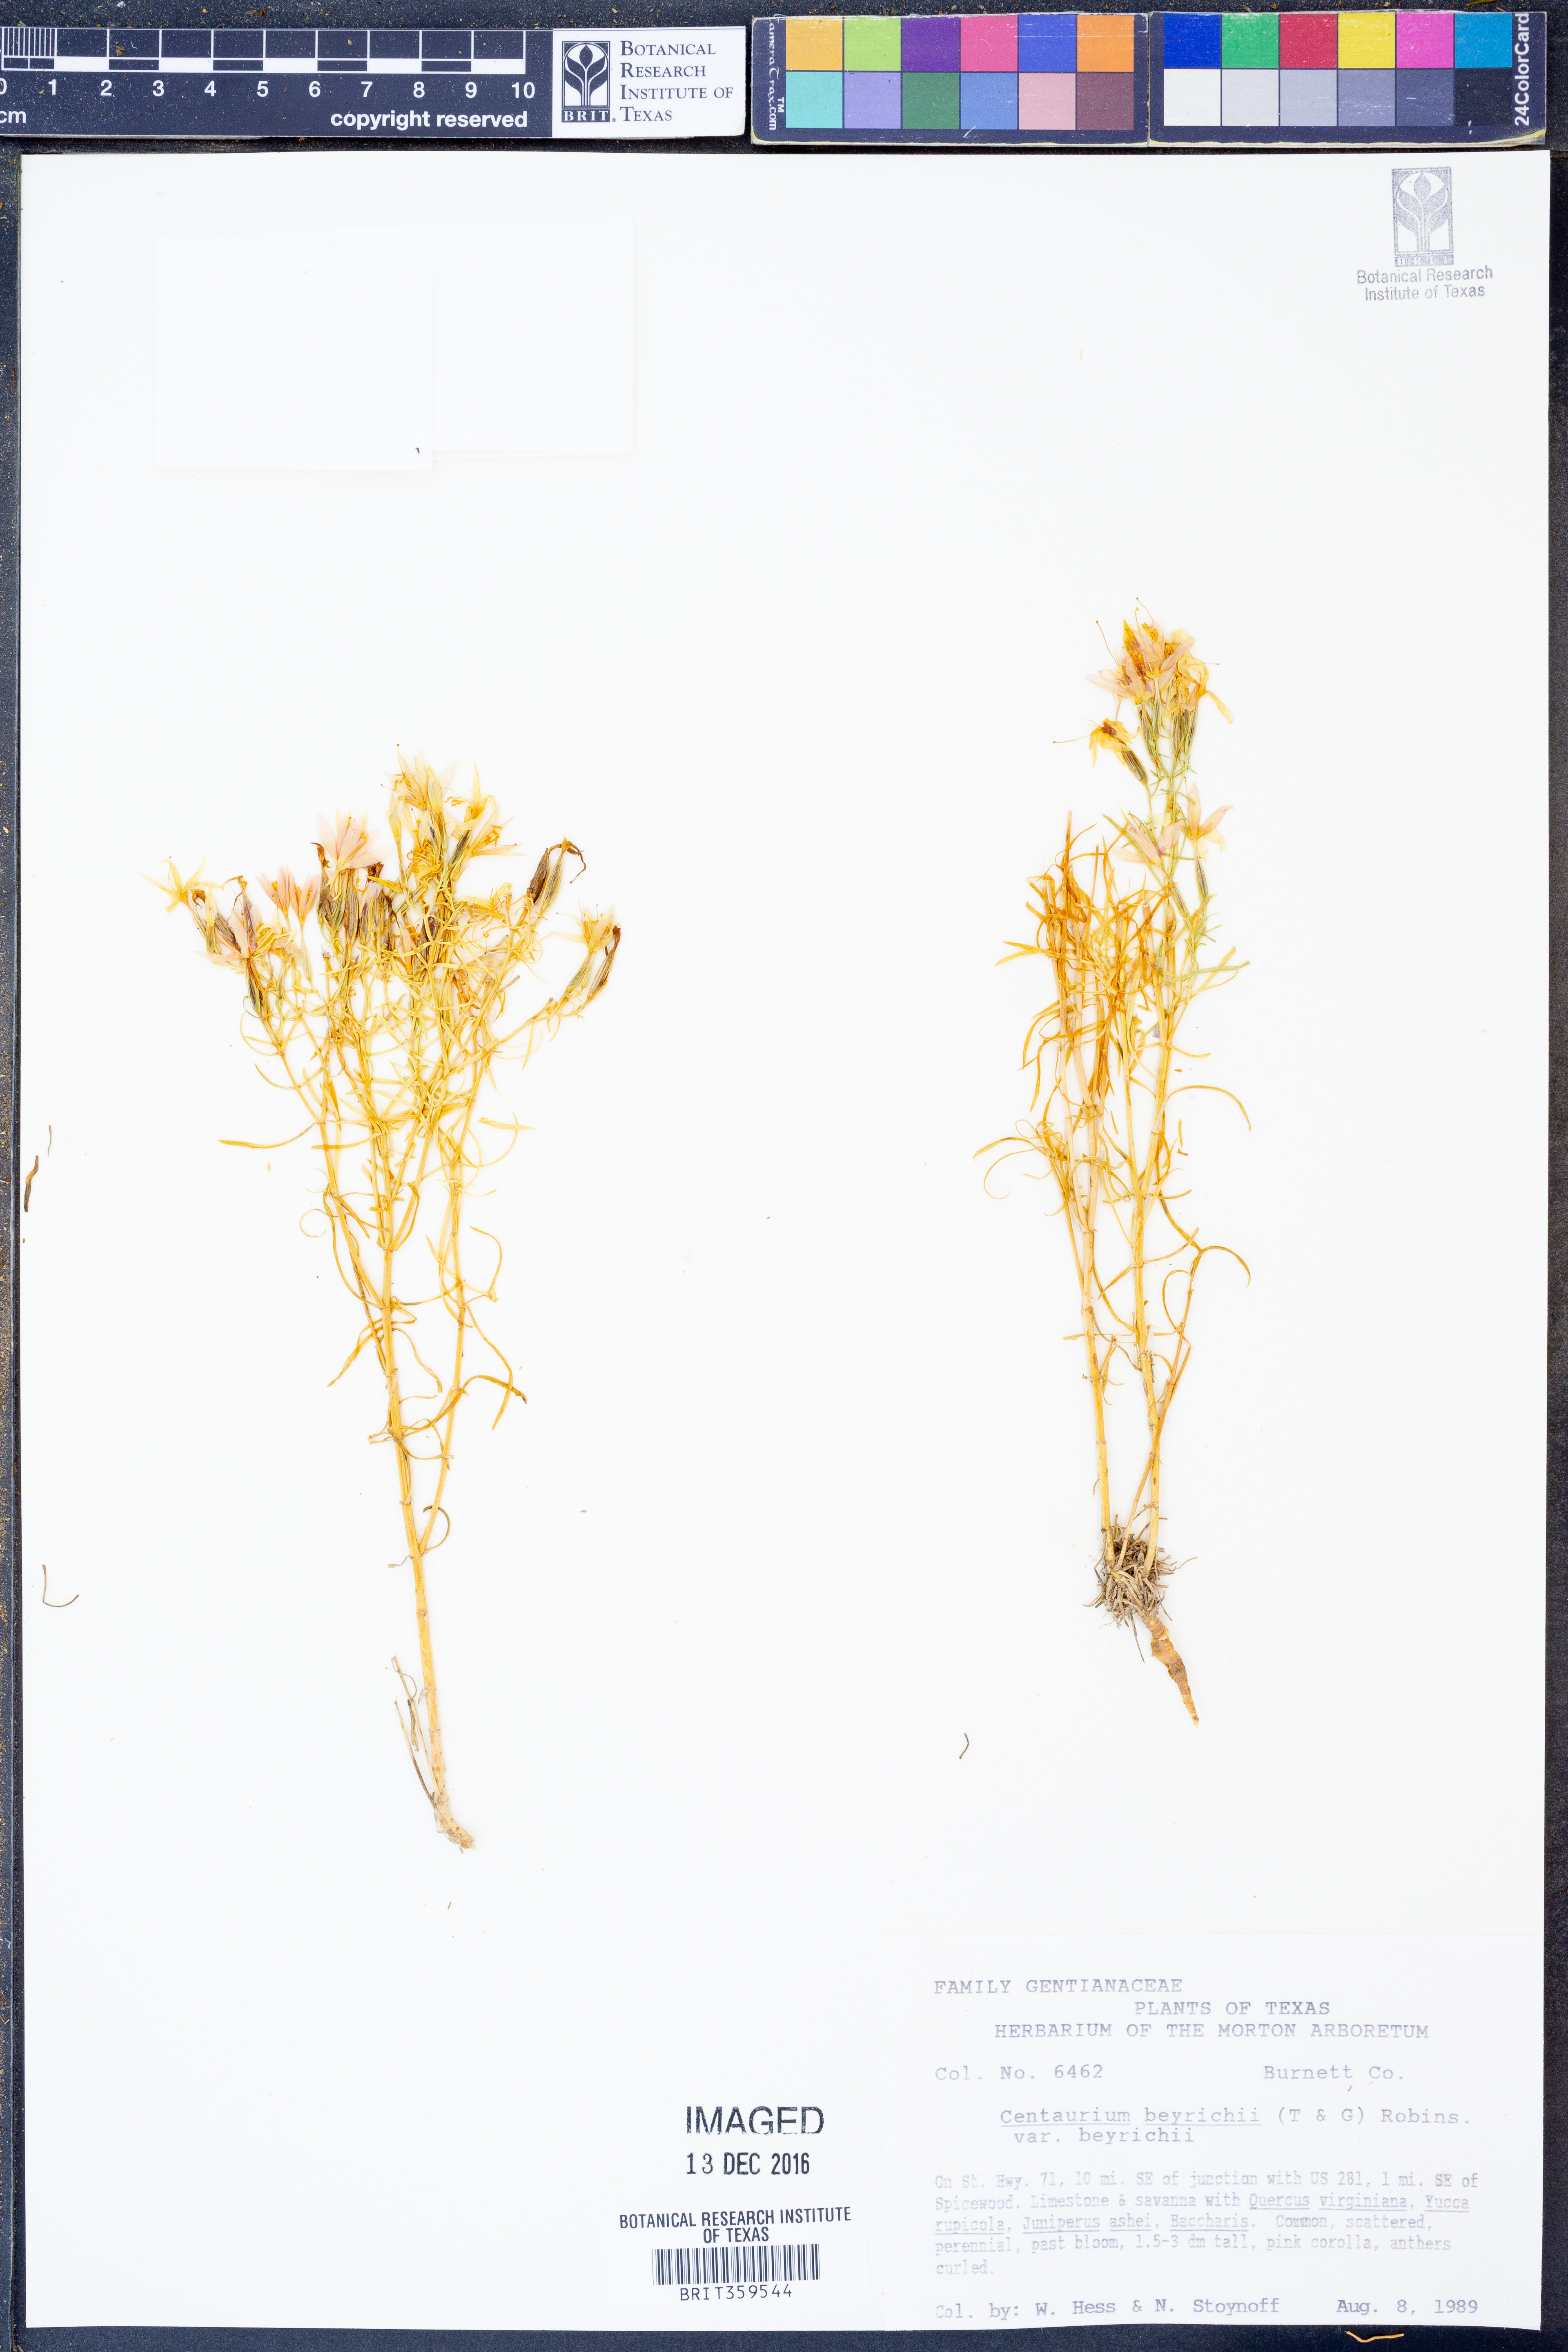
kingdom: Plantae
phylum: Tracheophyta
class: Magnoliopsida
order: Gentianales
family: Gentianaceae
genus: Zeltnera
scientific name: Zeltnera beyrichii
